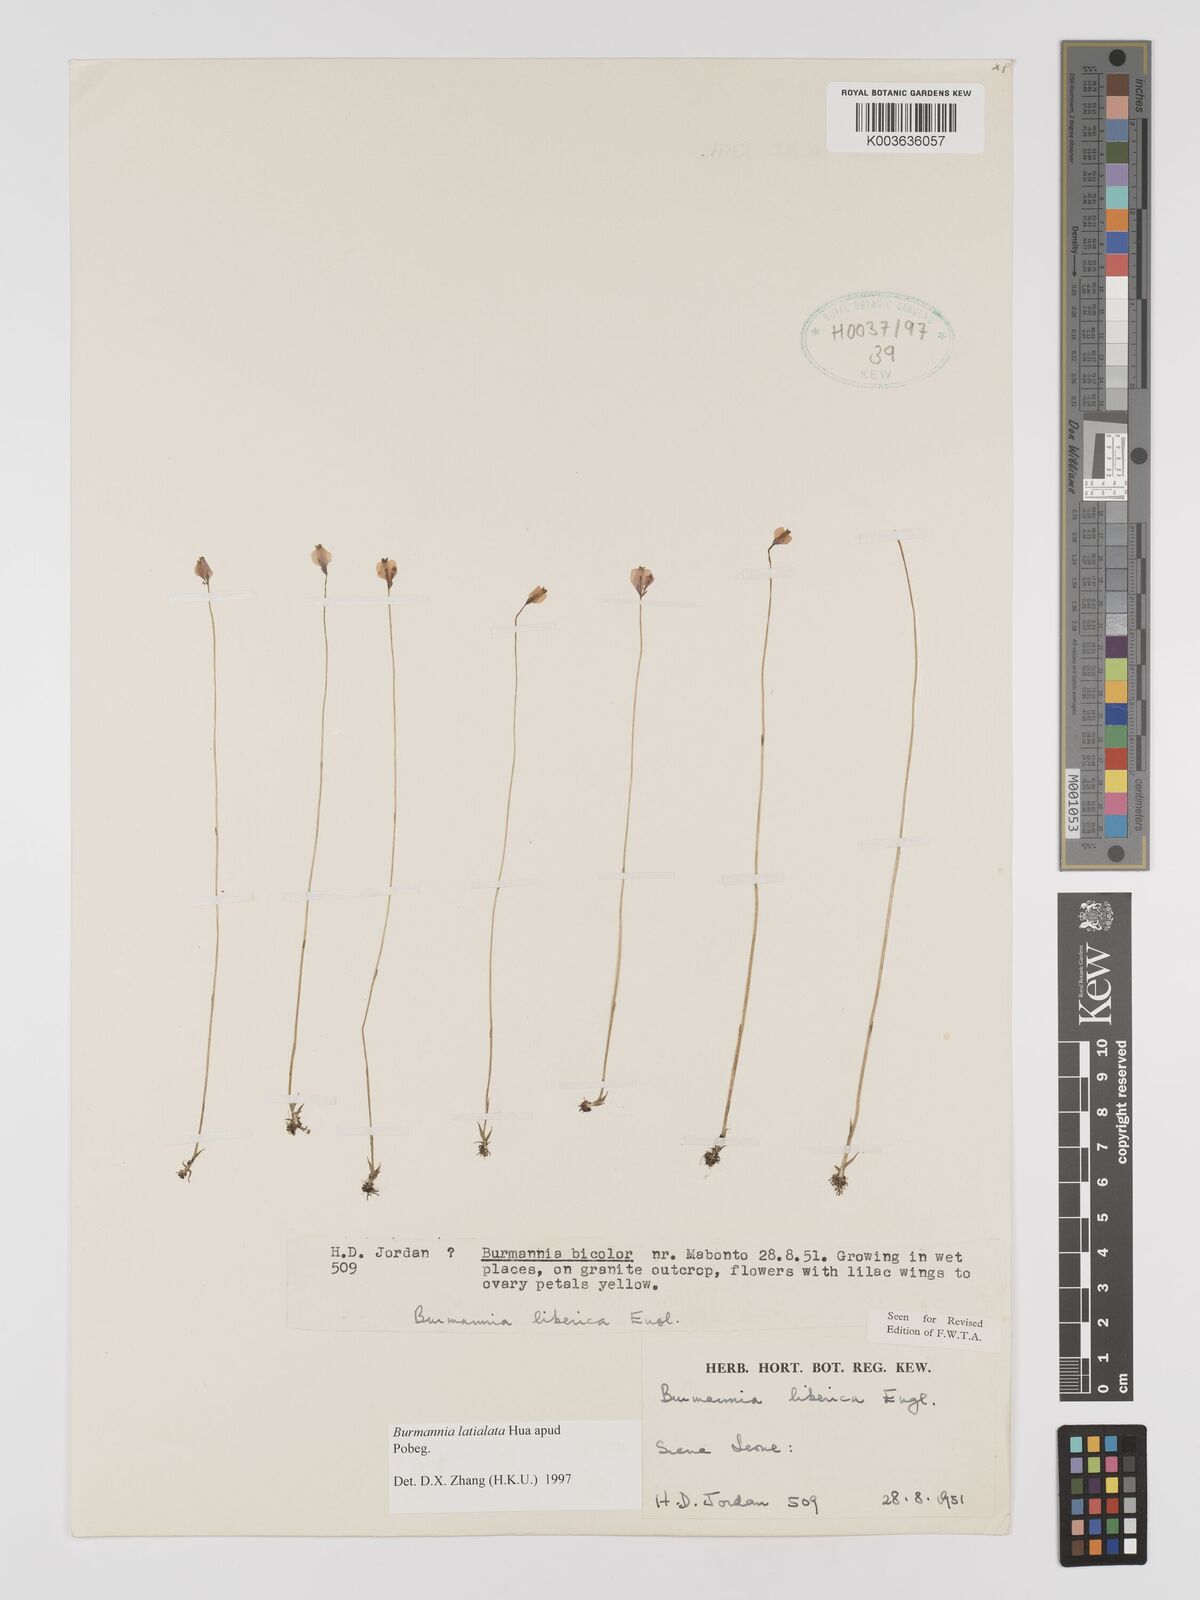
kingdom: Plantae
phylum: Tracheophyta
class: Liliopsida
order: Dioscoreales
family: Burmanniaceae
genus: Burmannia
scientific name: Burmannia madagascariensis
